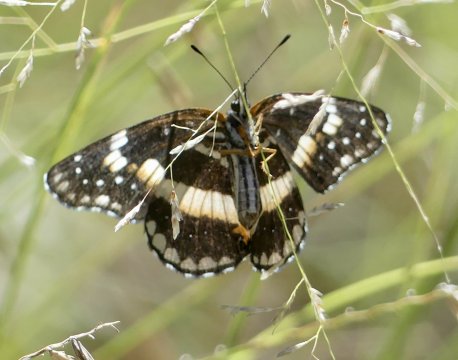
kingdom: Animalia
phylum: Arthropoda
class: Insecta
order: Lepidoptera
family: Nymphalidae
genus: Chlosyne
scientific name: Chlosyne lacinia
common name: Bordered Patch
